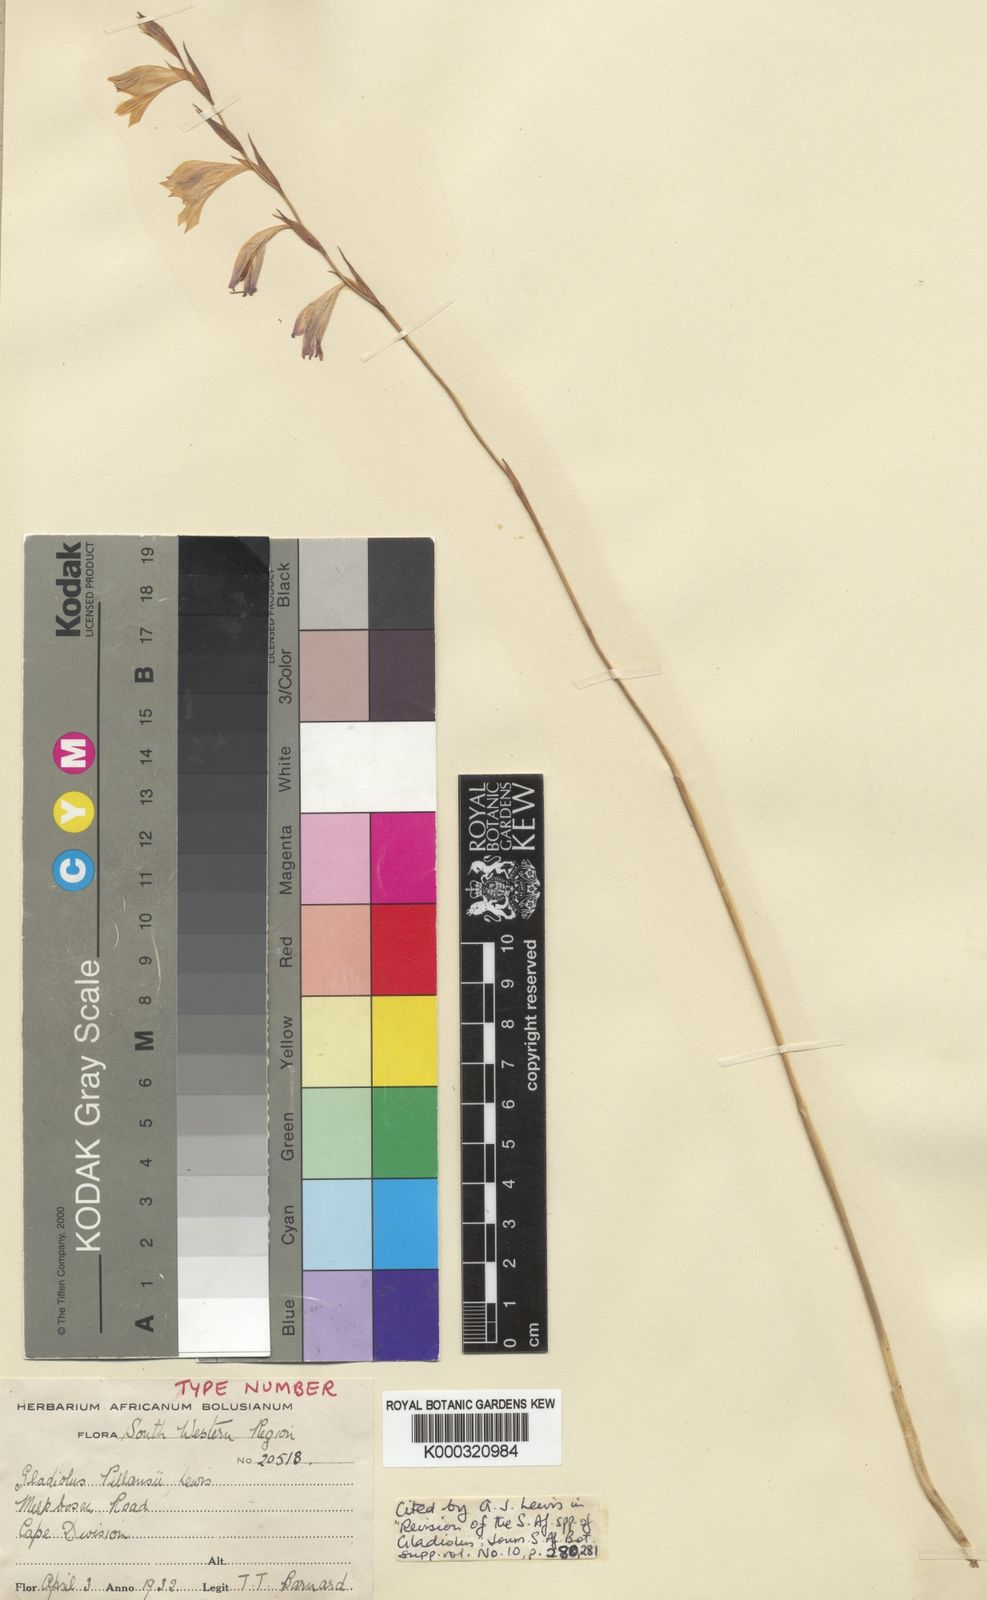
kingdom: Plantae
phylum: Tracheophyta
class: Liliopsida
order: Asparagales
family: Iridaceae
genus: Gladiolus
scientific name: Gladiolus martleyi
